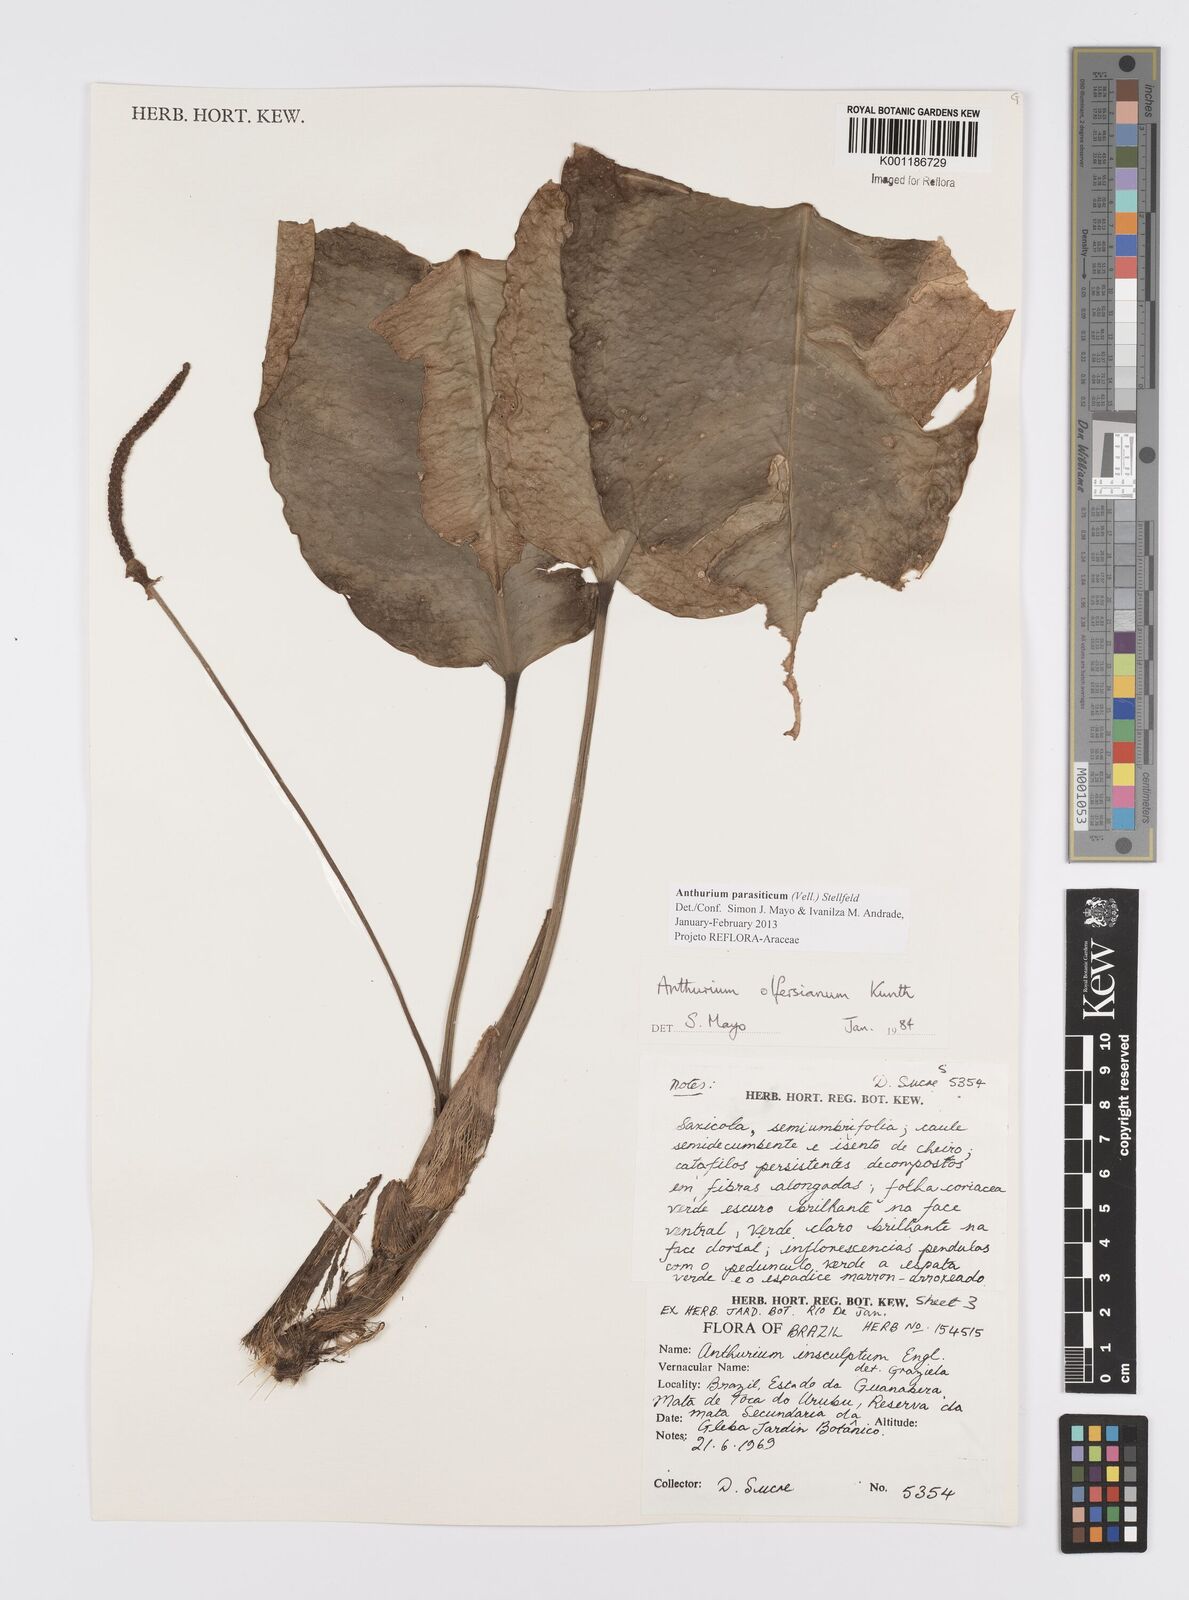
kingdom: Plantae
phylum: Tracheophyta
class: Liliopsida
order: Alismatales
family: Araceae
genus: Anthurium
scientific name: Anthurium parasiticum
